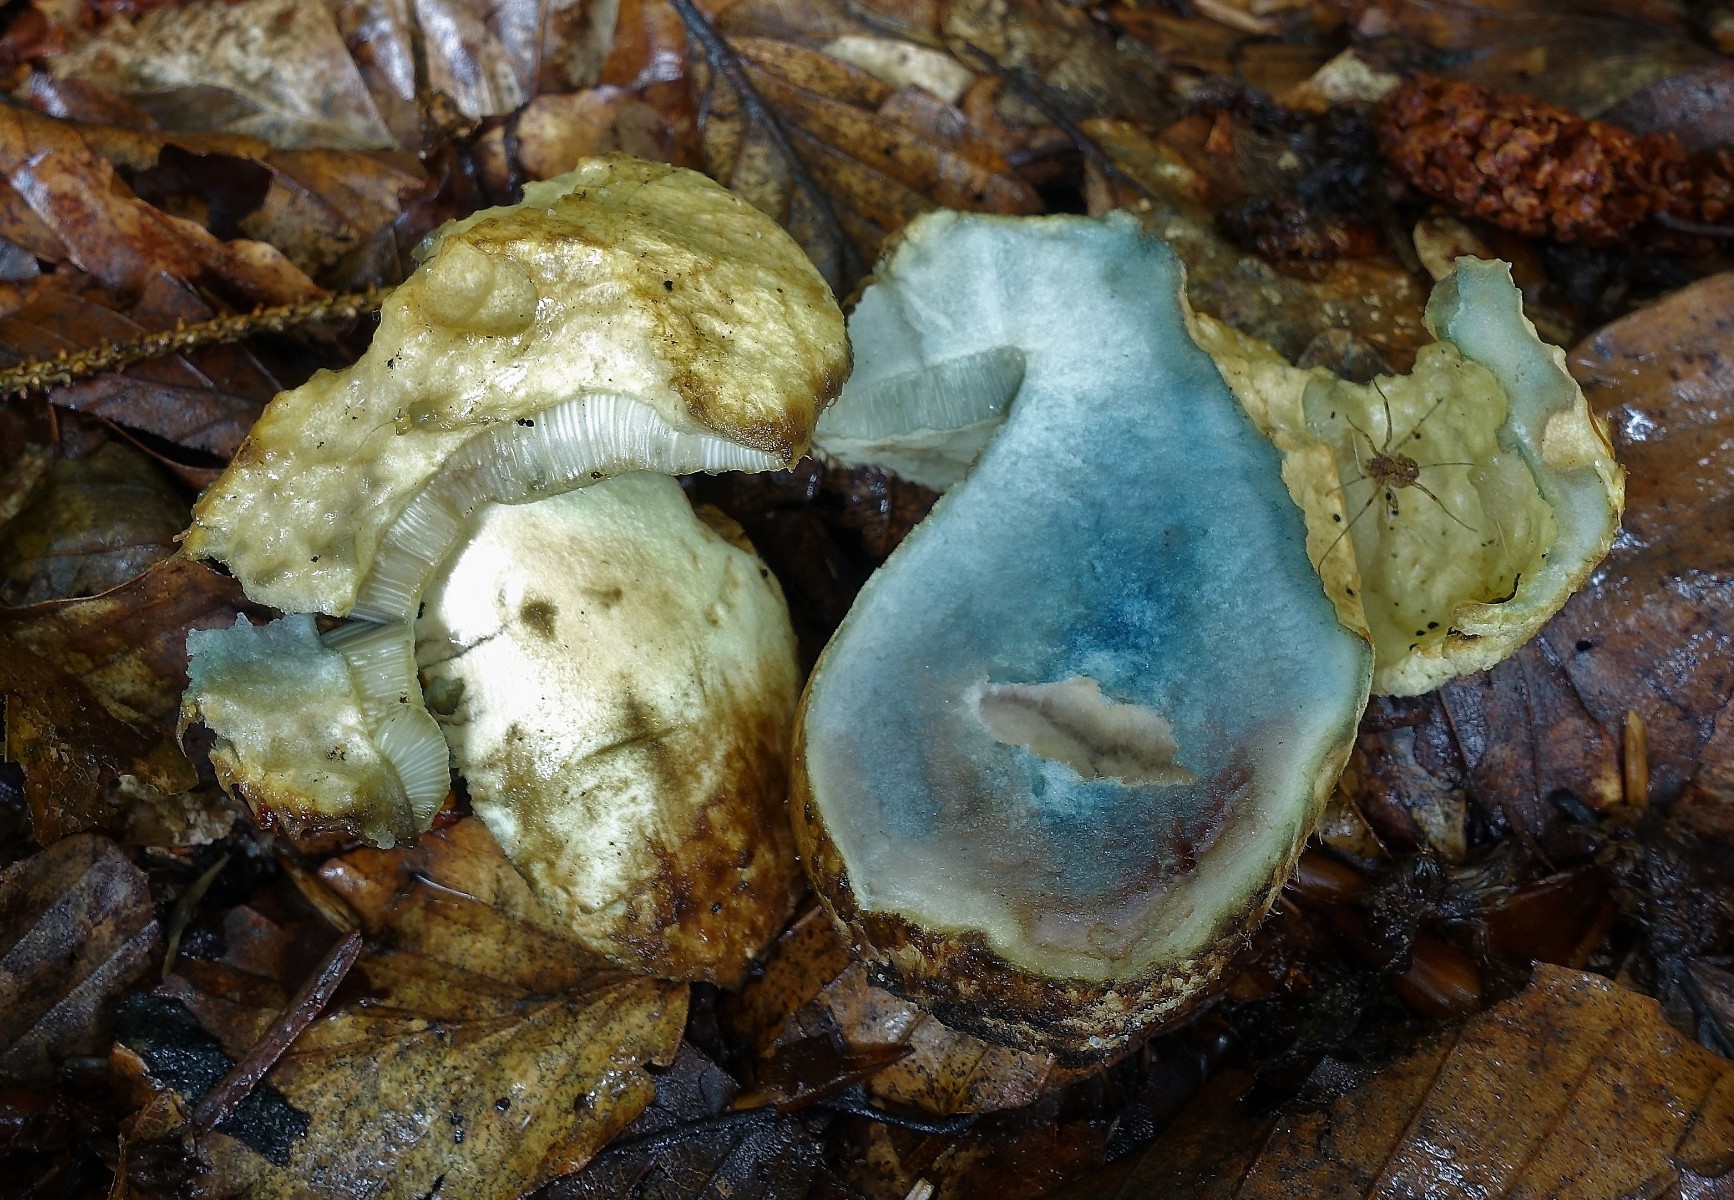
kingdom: Fungi
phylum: Basidiomycota
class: Agaricomycetes
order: Boletales
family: Gyroporaceae
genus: Gyroporus
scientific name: Gyroporus cyanescens
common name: blånende kammerrørhat
